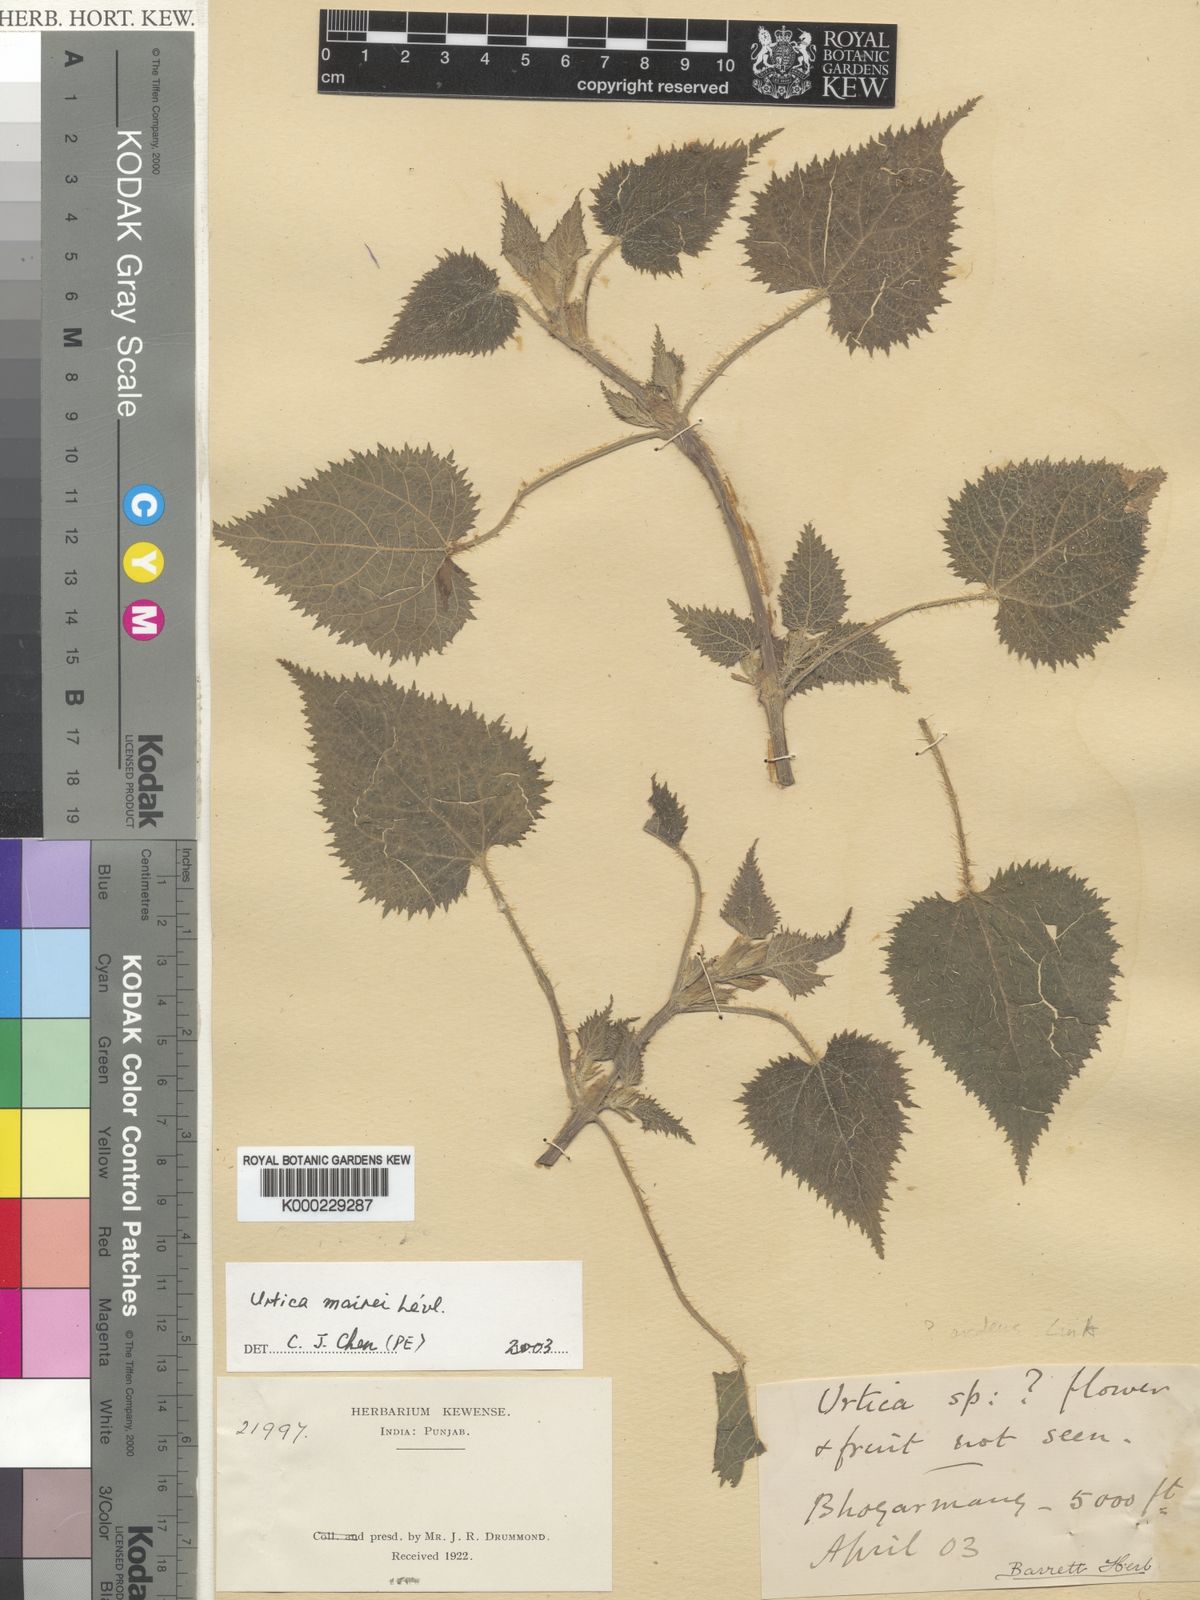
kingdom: Plantae
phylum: Tracheophyta
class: Magnoliopsida
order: Rosales
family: Urticaceae
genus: Urtica
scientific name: Urtica
